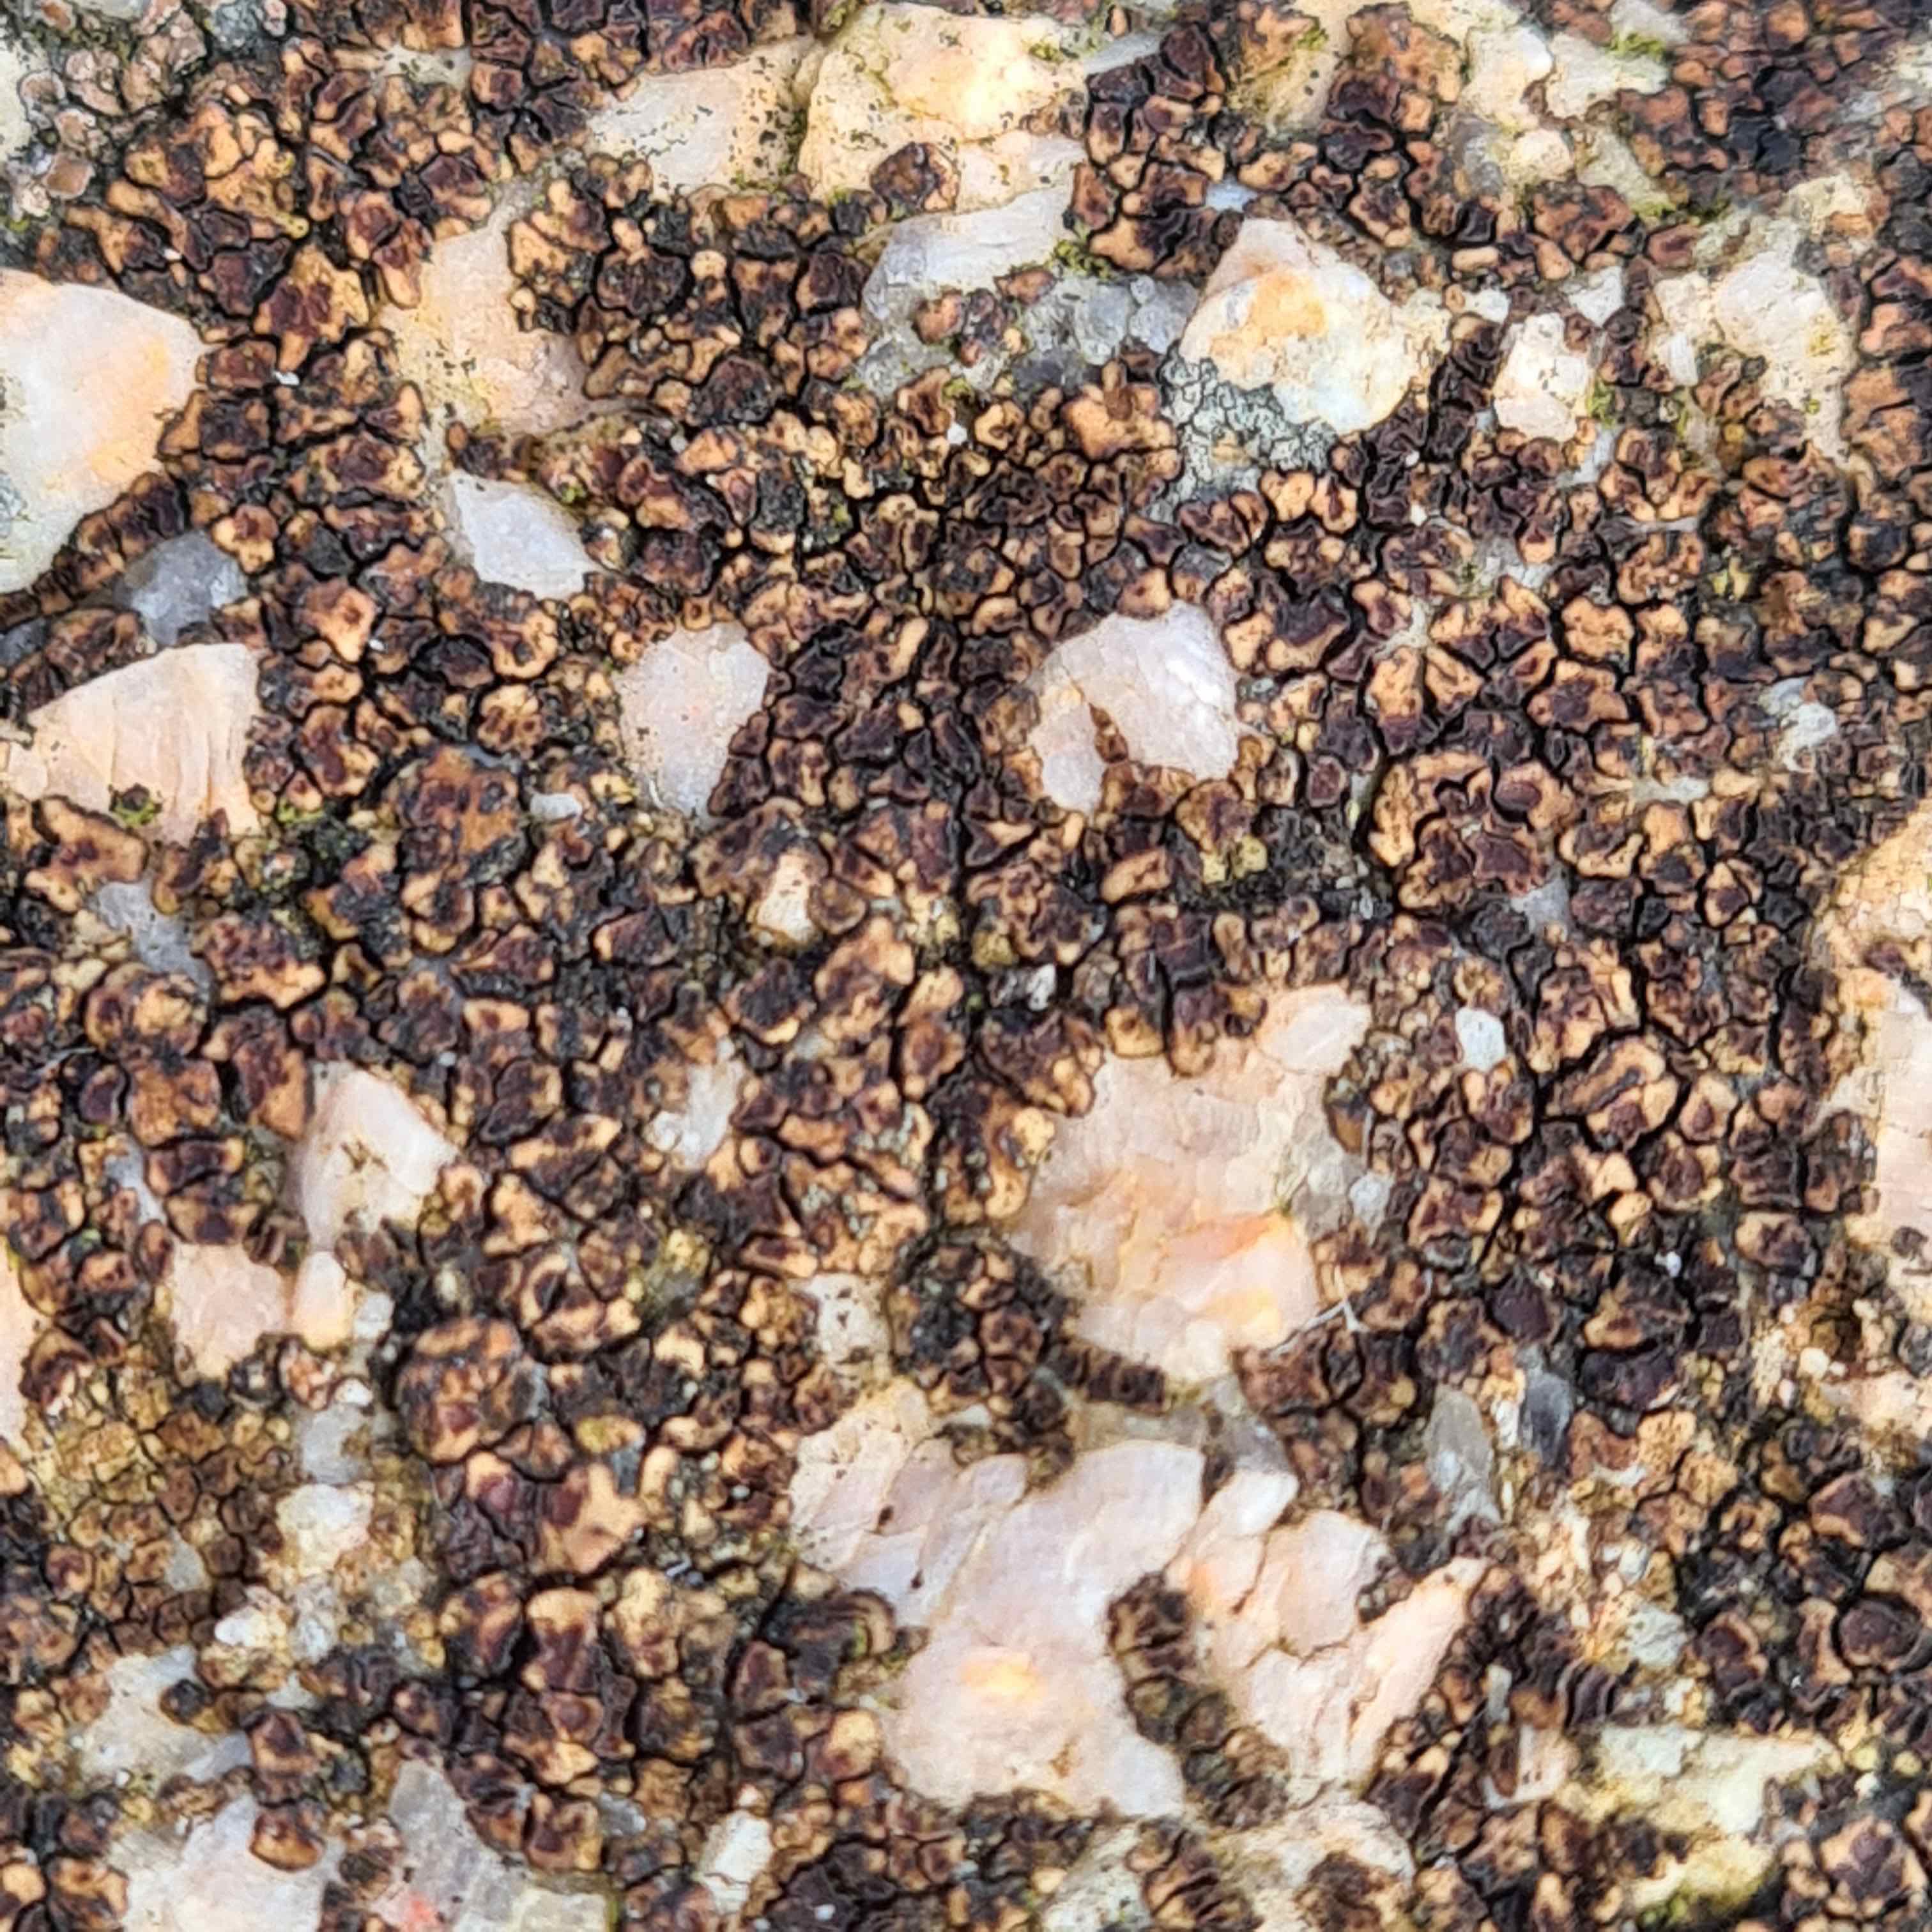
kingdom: Fungi
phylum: Ascomycota
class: Lecanoromycetes
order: Acarosporales
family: Acarosporaceae
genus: Acarospora
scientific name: Acarospora fuscata
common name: brun småsporelav
